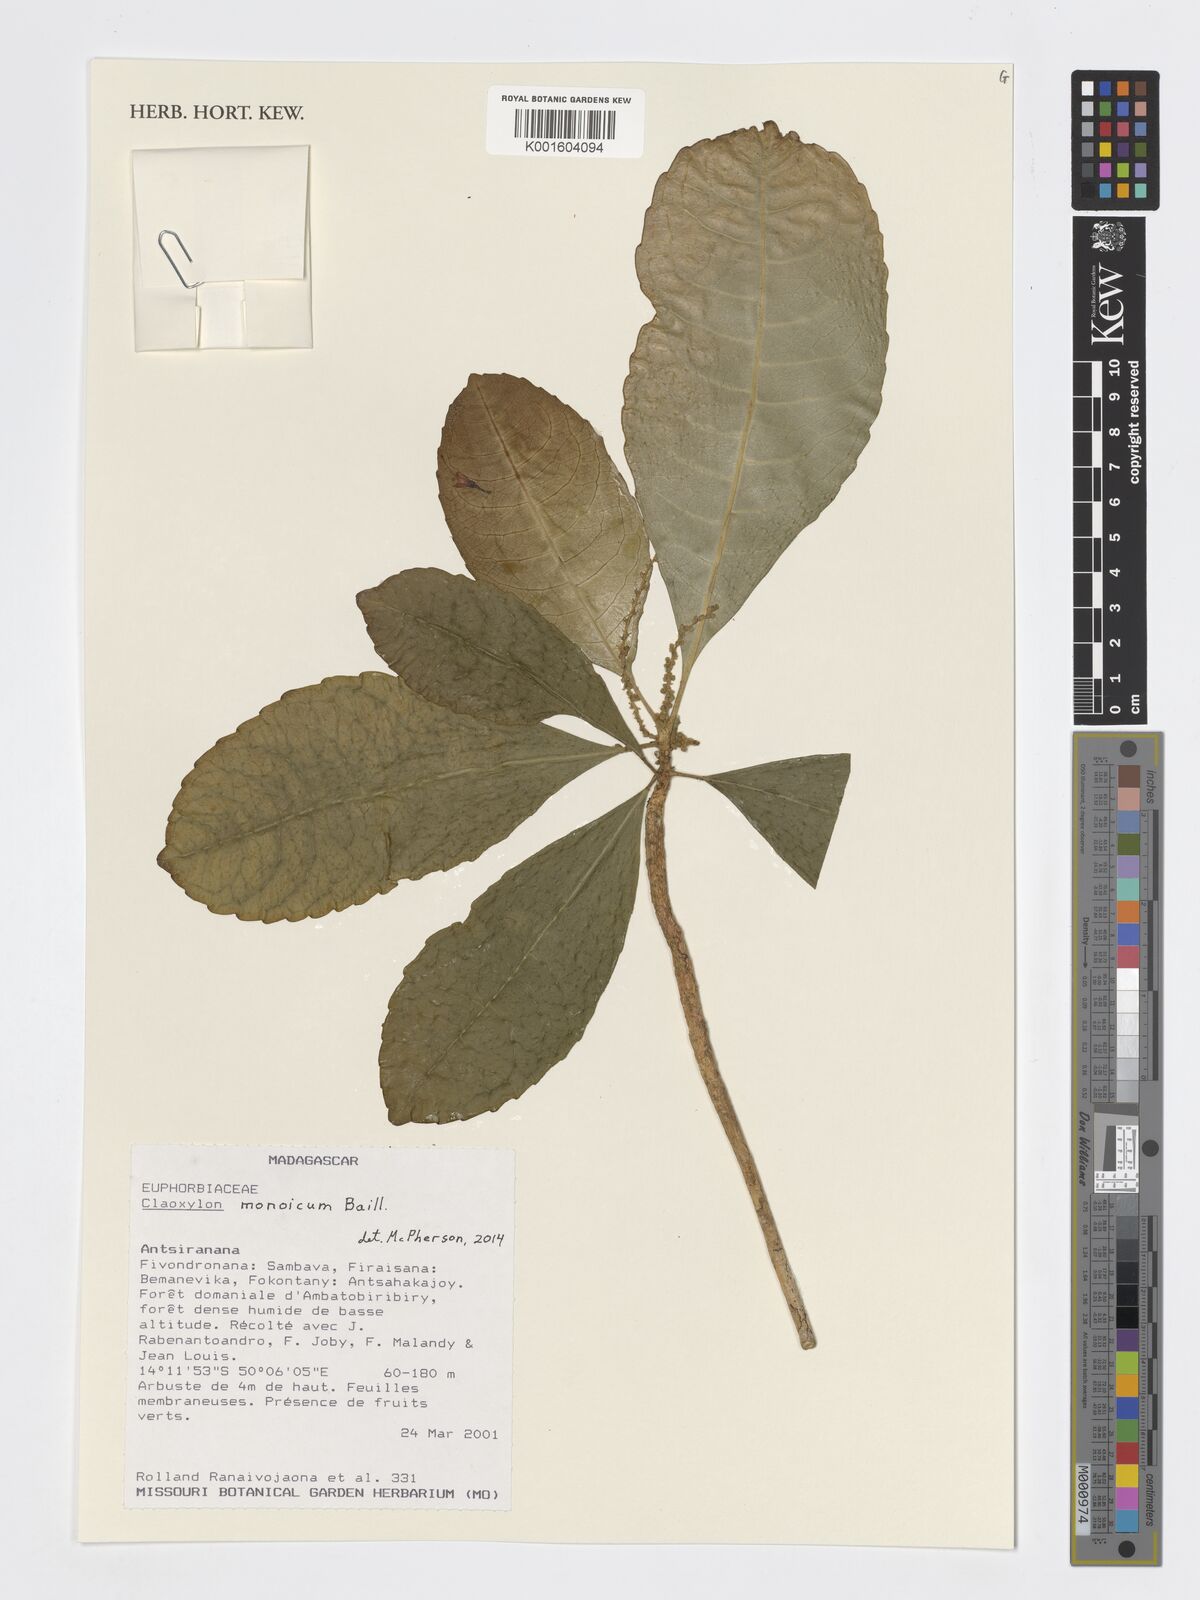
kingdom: Plantae
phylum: Tracheophyta
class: Magnoliopsida
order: Malpighiales
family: Euphorbiaceae
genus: Claoxylon
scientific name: Claoxylon monoicum
